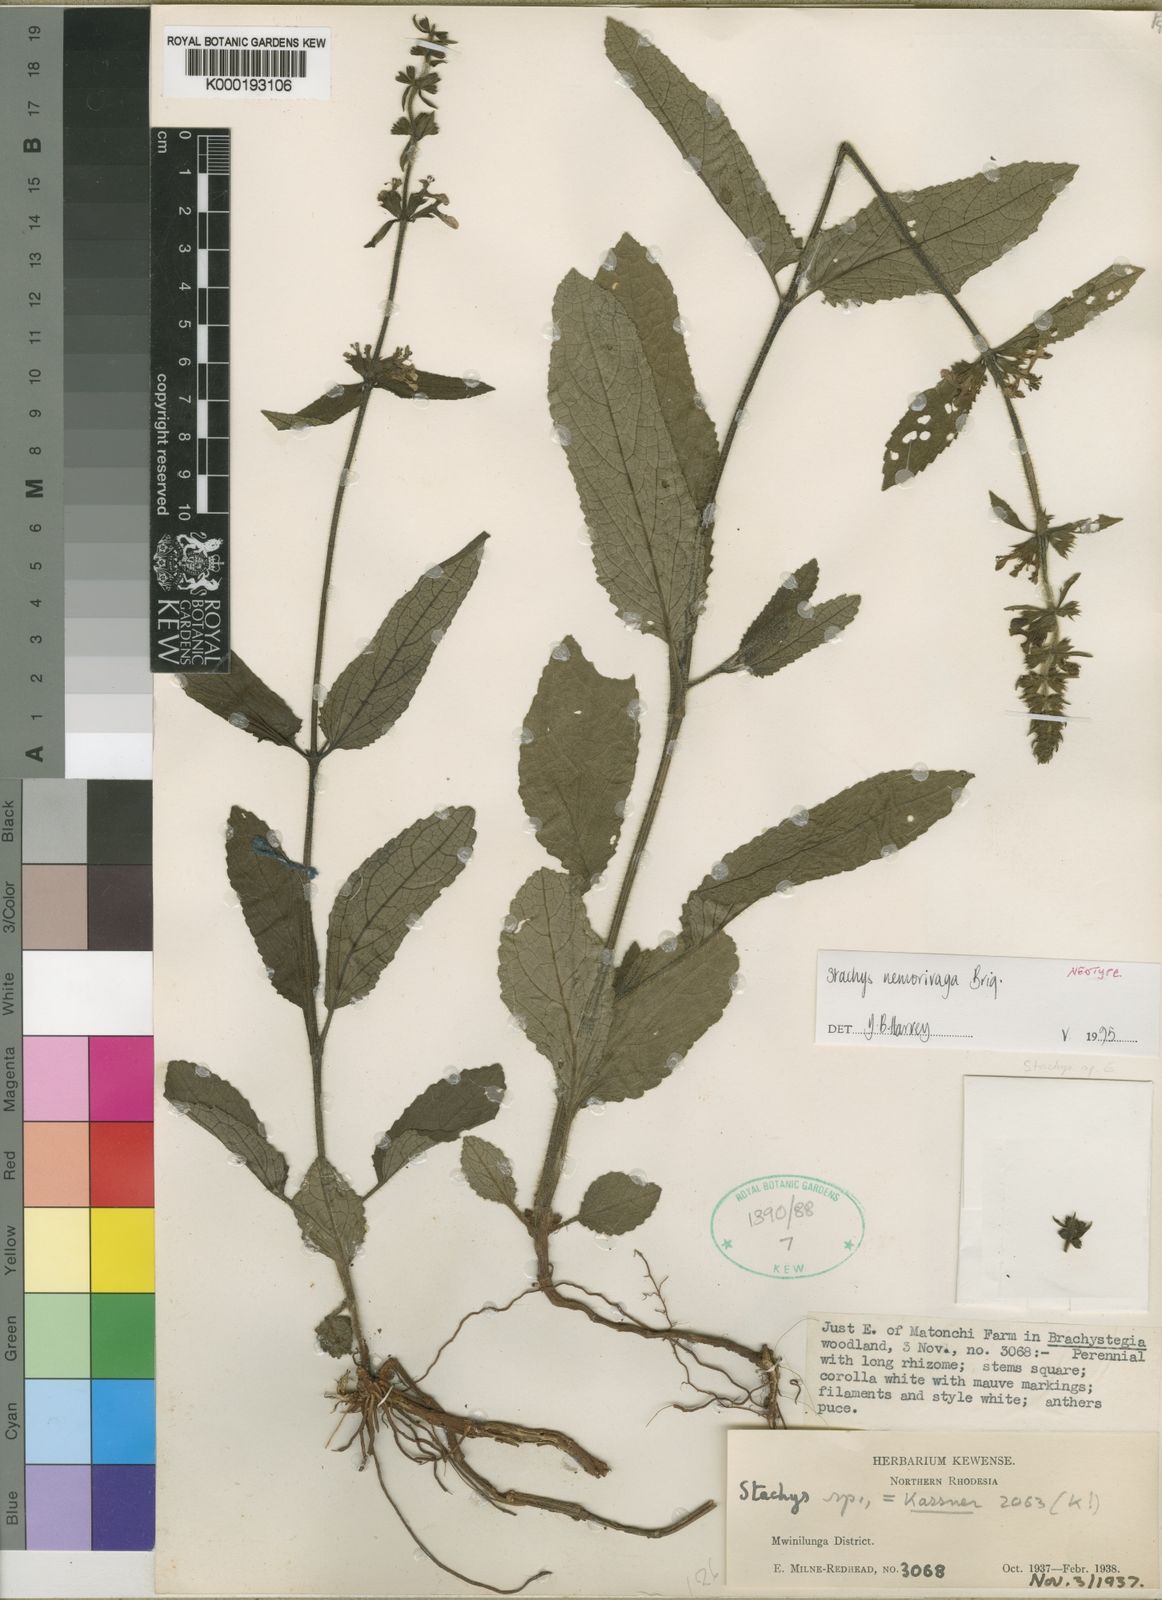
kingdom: Plantae
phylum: Tracheophyta
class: Magnoliopsida
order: Lamiales
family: Lamiaceae
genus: Stachys
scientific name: Stachys nemorivaga
